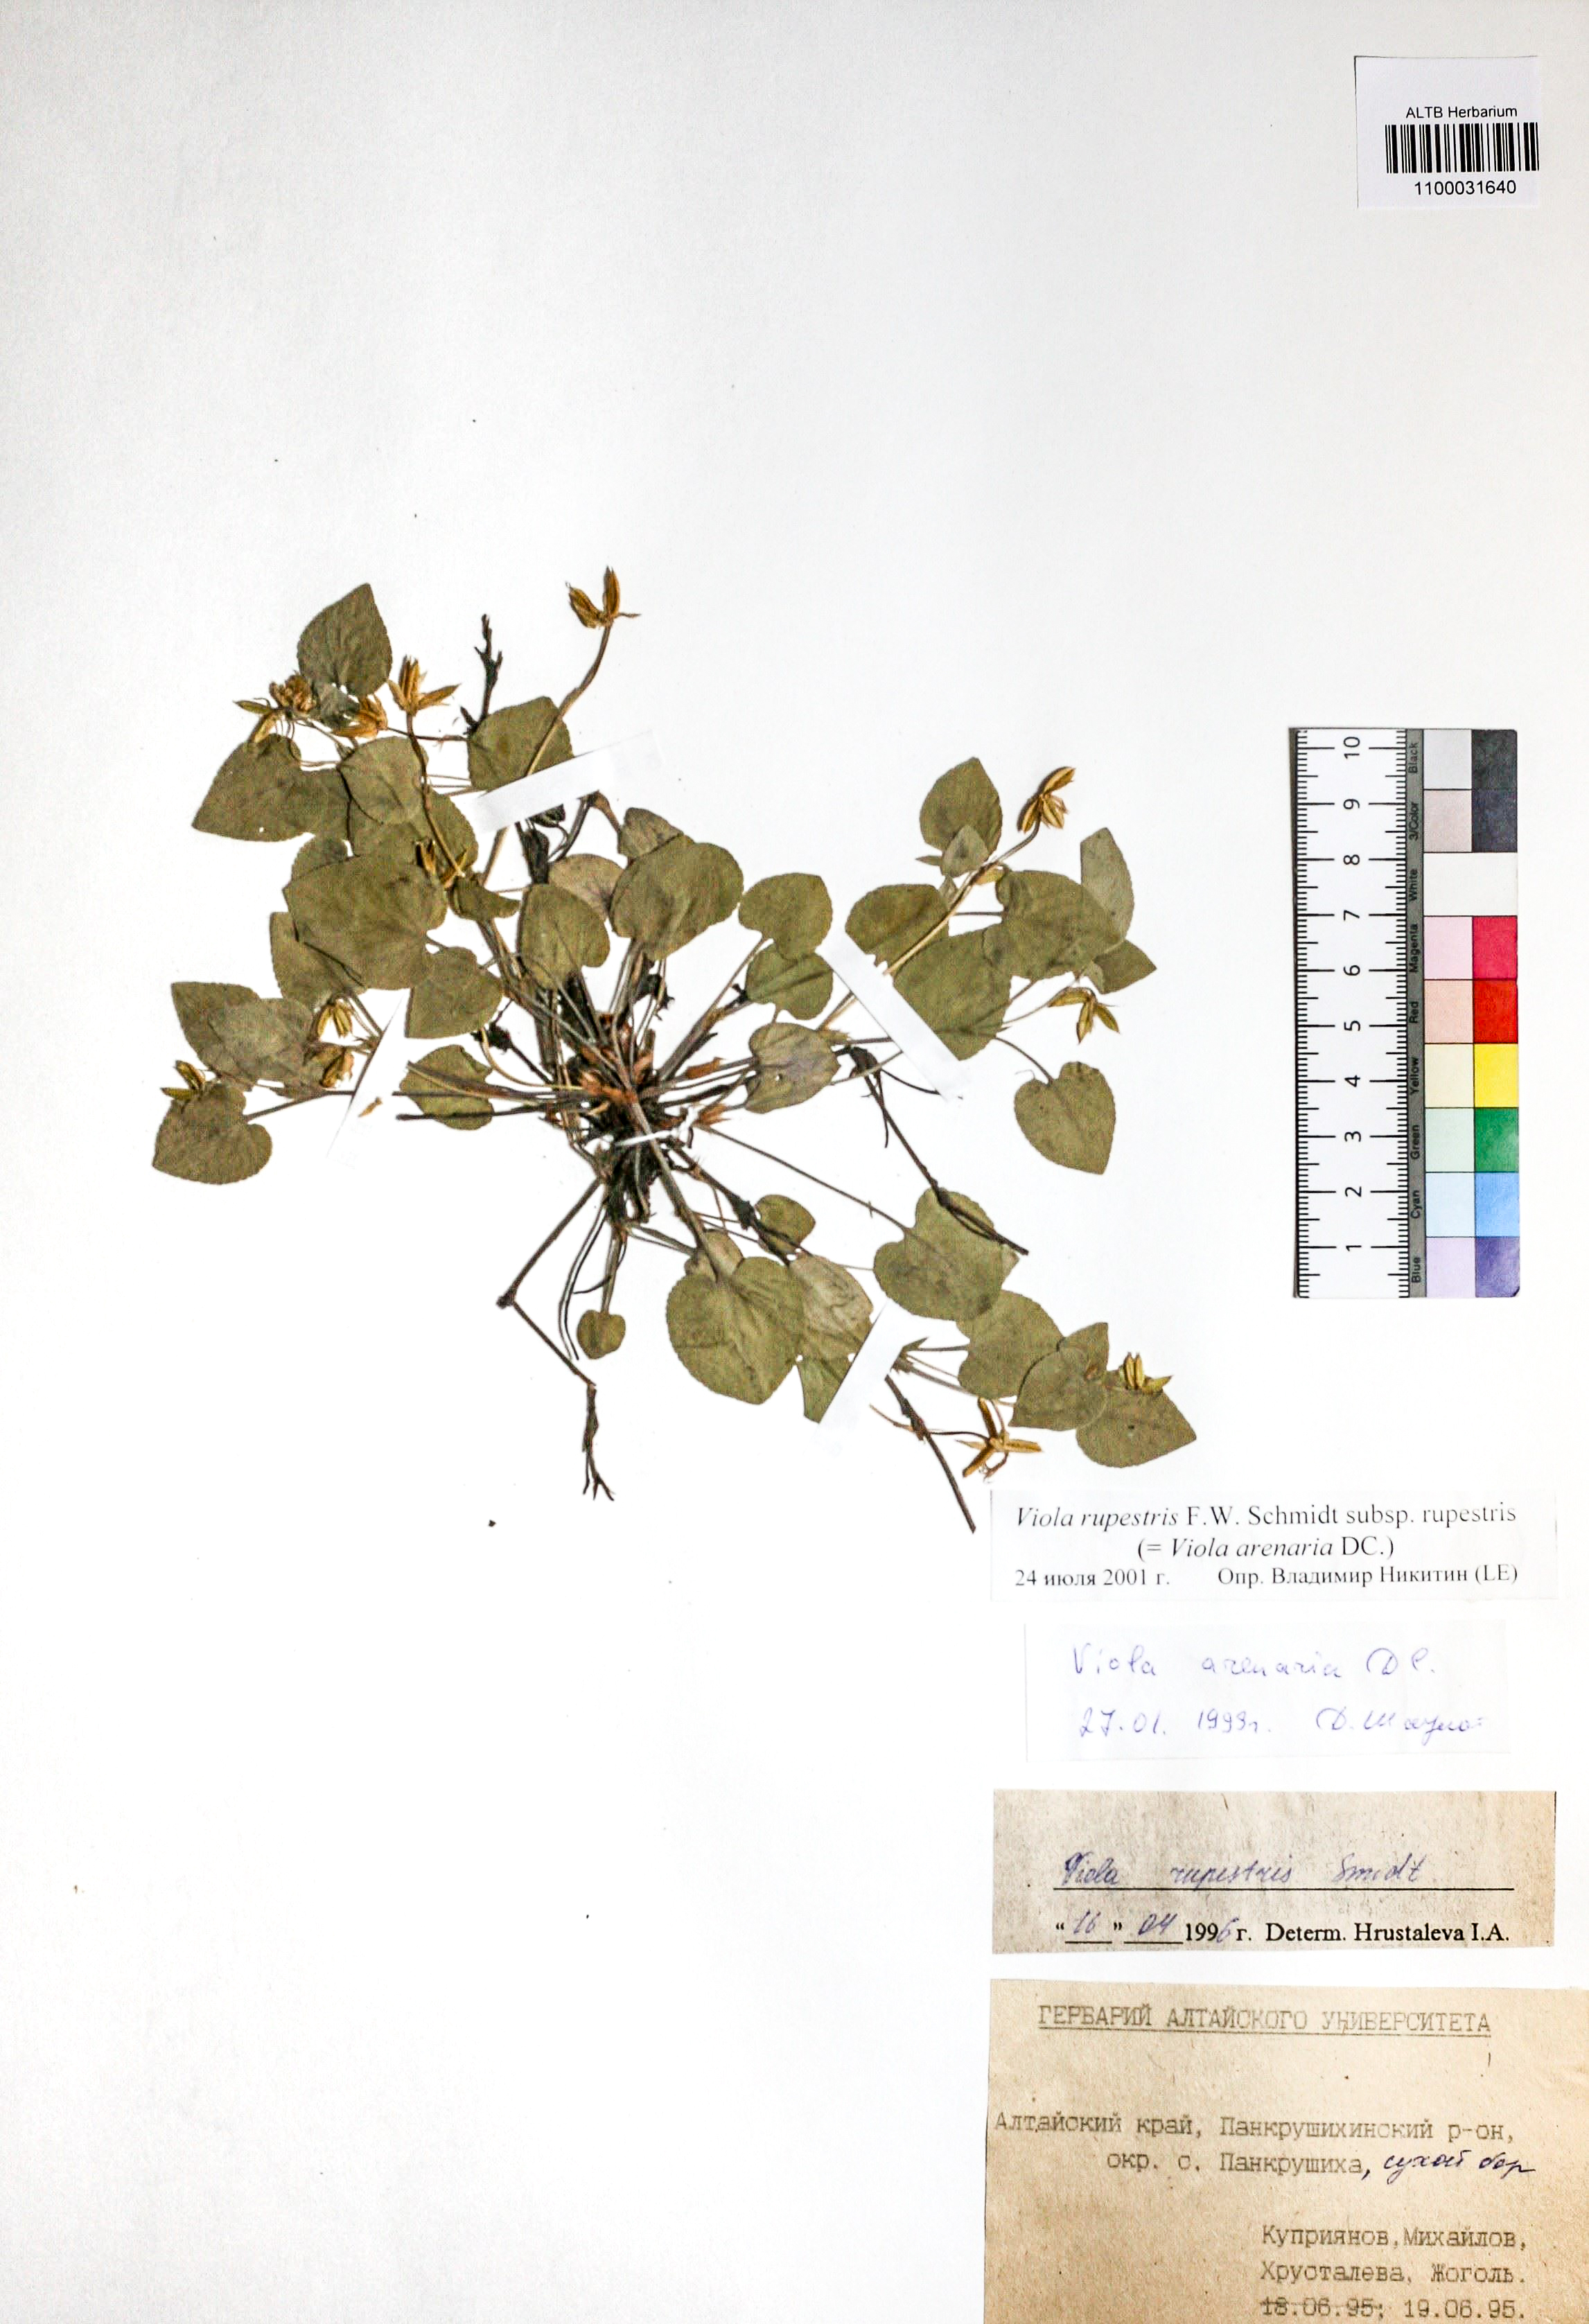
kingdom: Plantae
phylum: Tracheophyta
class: Magnoliopsida
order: Malpighiales
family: Violaceae
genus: Viola
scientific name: Viola rupestris
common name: Teesdale violet
